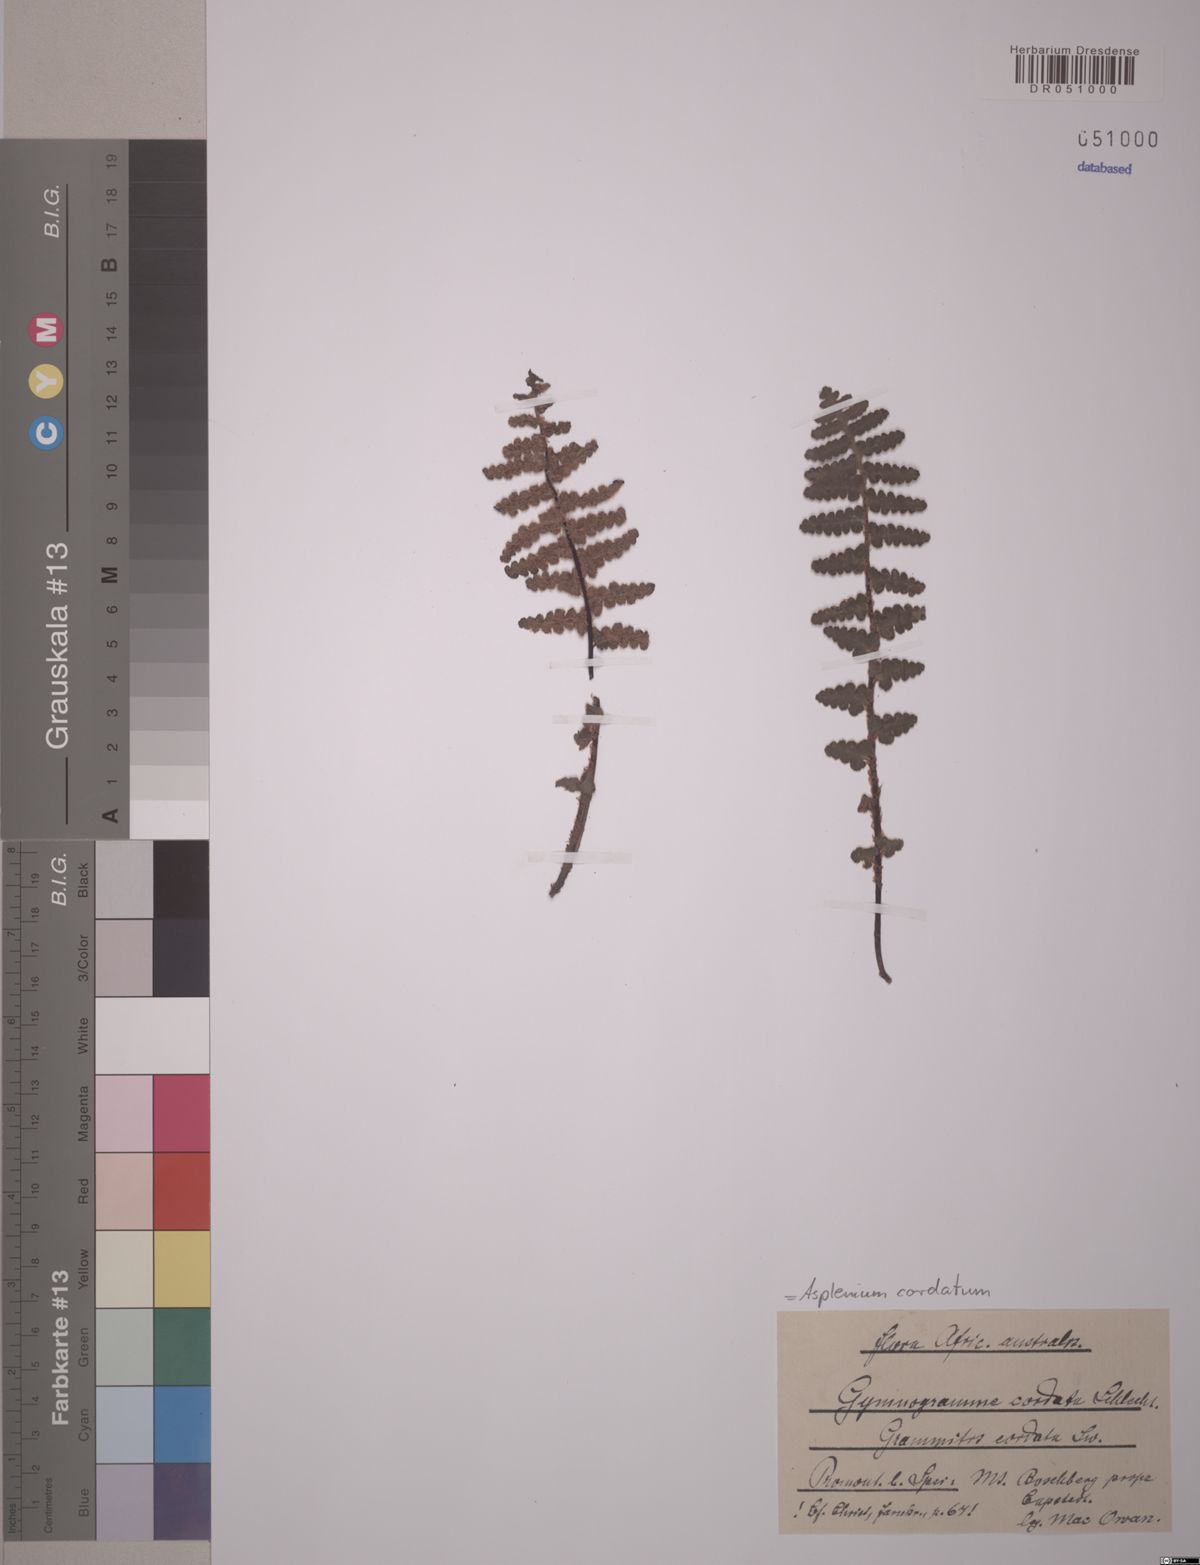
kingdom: Plantae
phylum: Tracheophyta
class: Polypodiopsida
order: Polypodiales
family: Aspleniaceae
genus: Asplenium
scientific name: Asplenium cordatum
